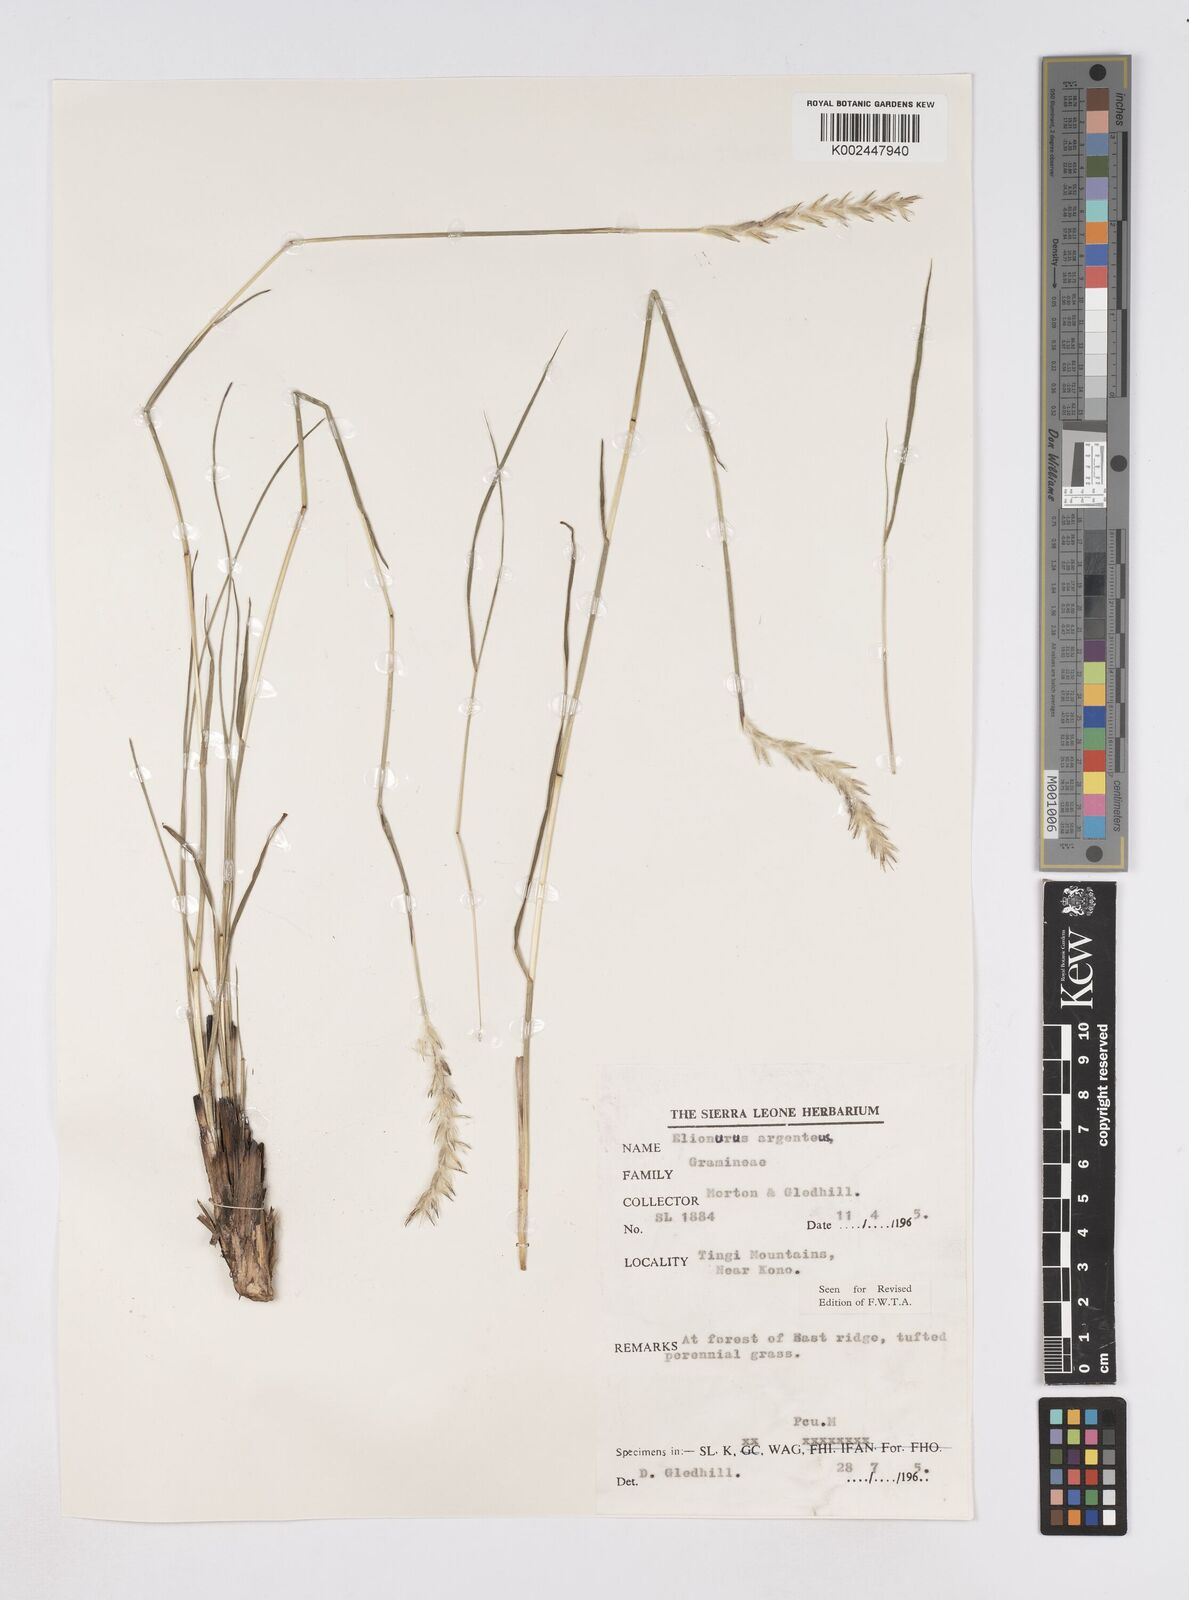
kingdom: Plantae
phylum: Tracheophyta
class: Liliopsida
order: Poales
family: Poaceae
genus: Elionurus
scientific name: Elionurus muticus
